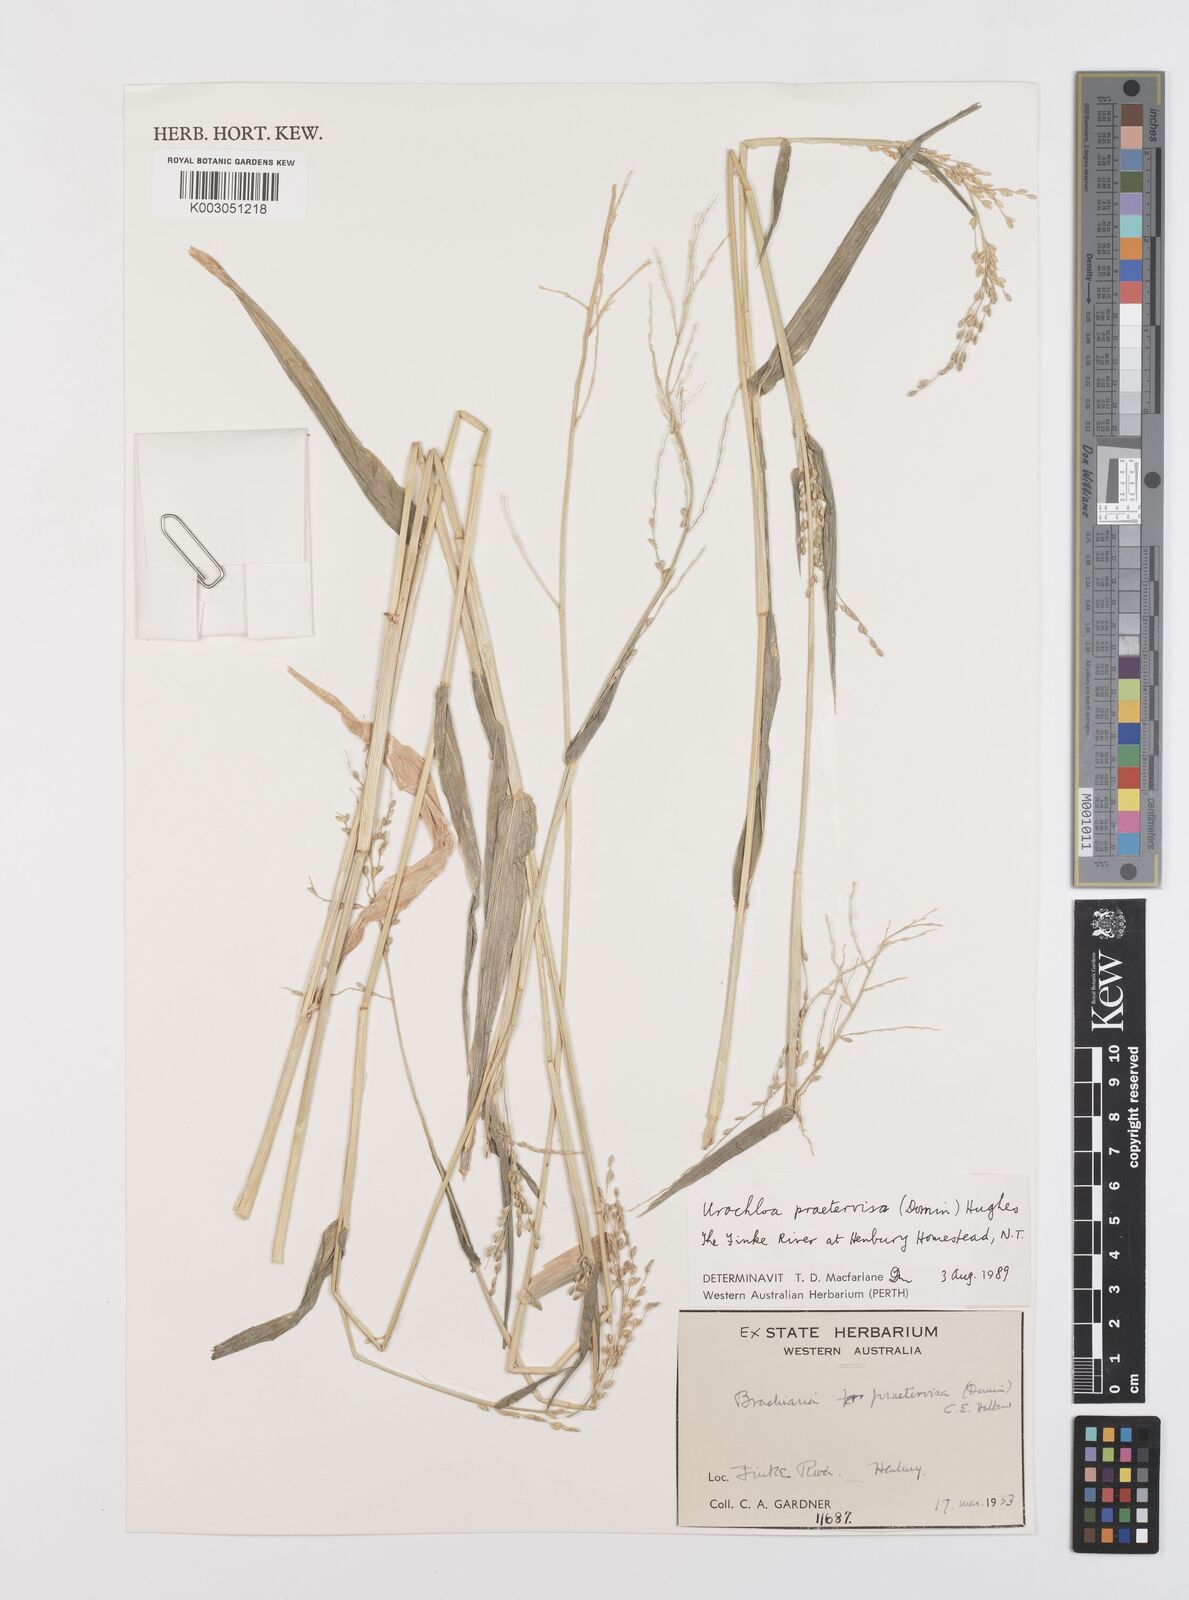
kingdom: Plantae
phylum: Tracheophyta
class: Liliopsida
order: Poales
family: Poaceae
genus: Urochloa
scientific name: Urochloa praetervisa
